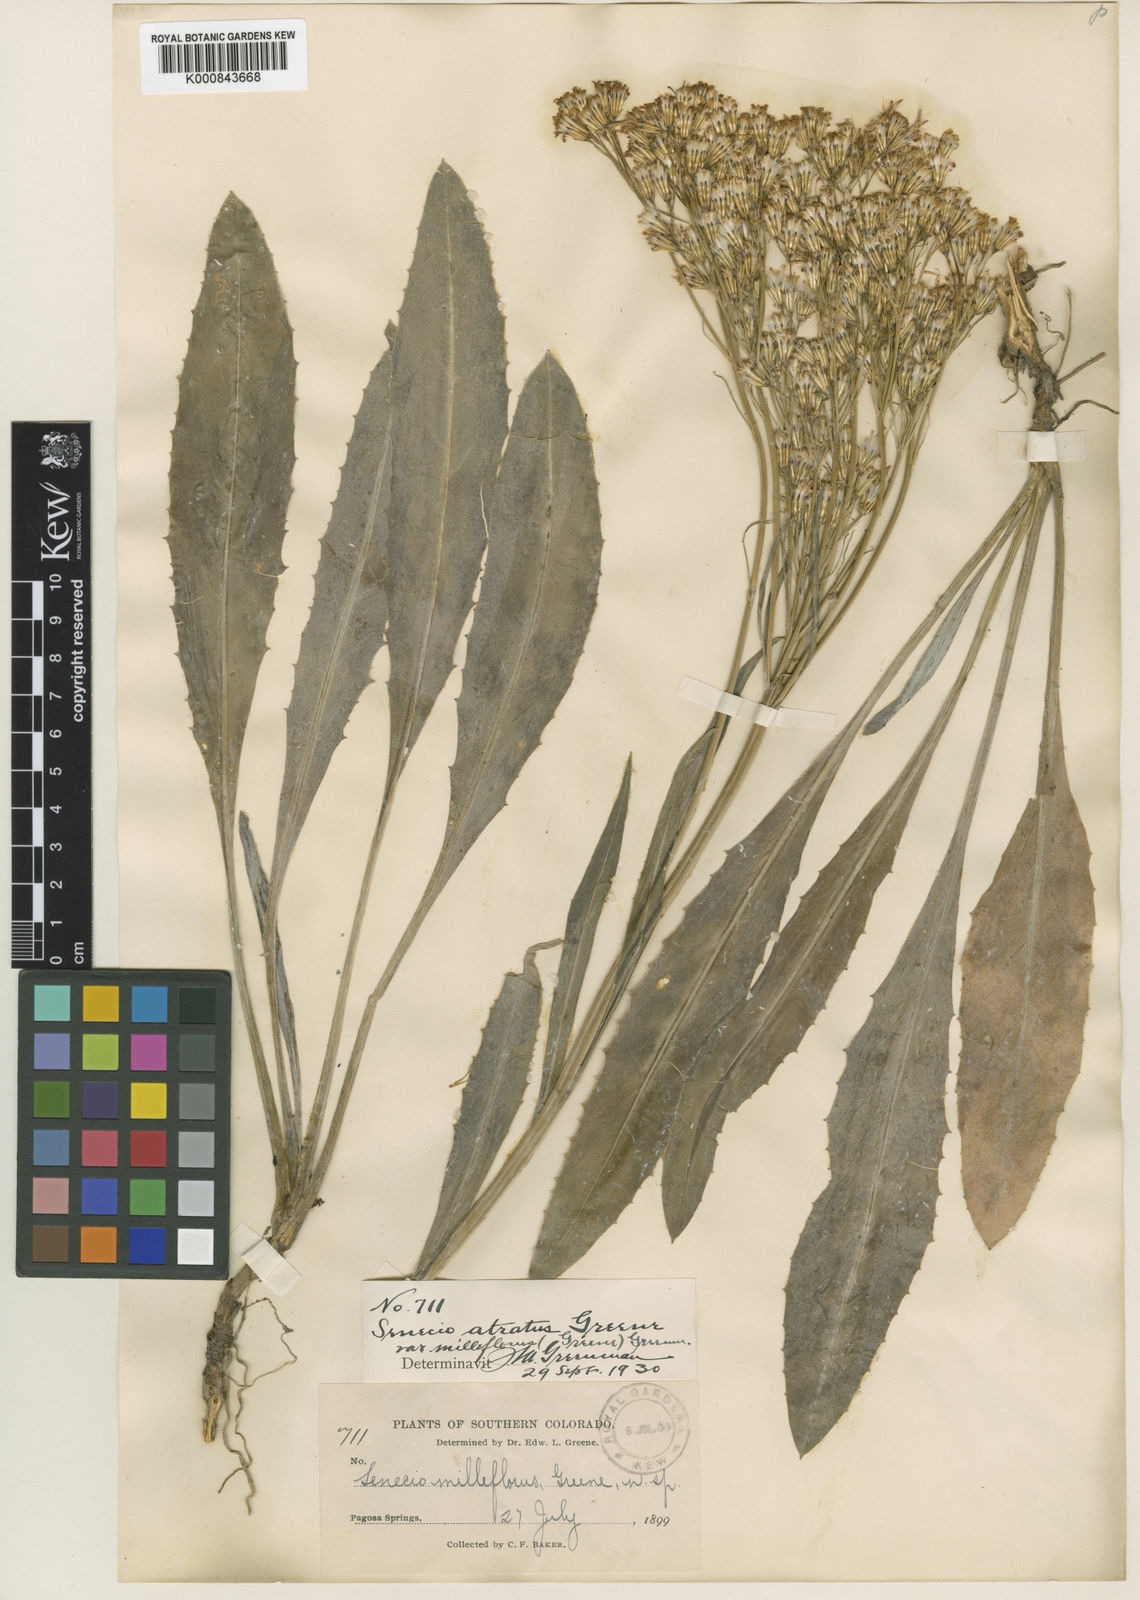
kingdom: Plantae
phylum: Tracheophyta
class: Magnoliopsida
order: Asterales
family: Asteraceae
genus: Senecio
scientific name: Senecio
